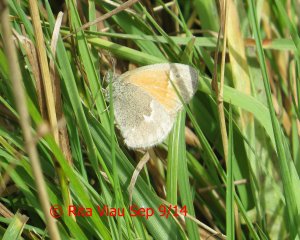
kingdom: Animalia
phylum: Arthropoda
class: Insecta
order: Lepidoptera
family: Nymphalidae
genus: Coenonympha
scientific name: Coenonympha tullia
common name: Large Heath
